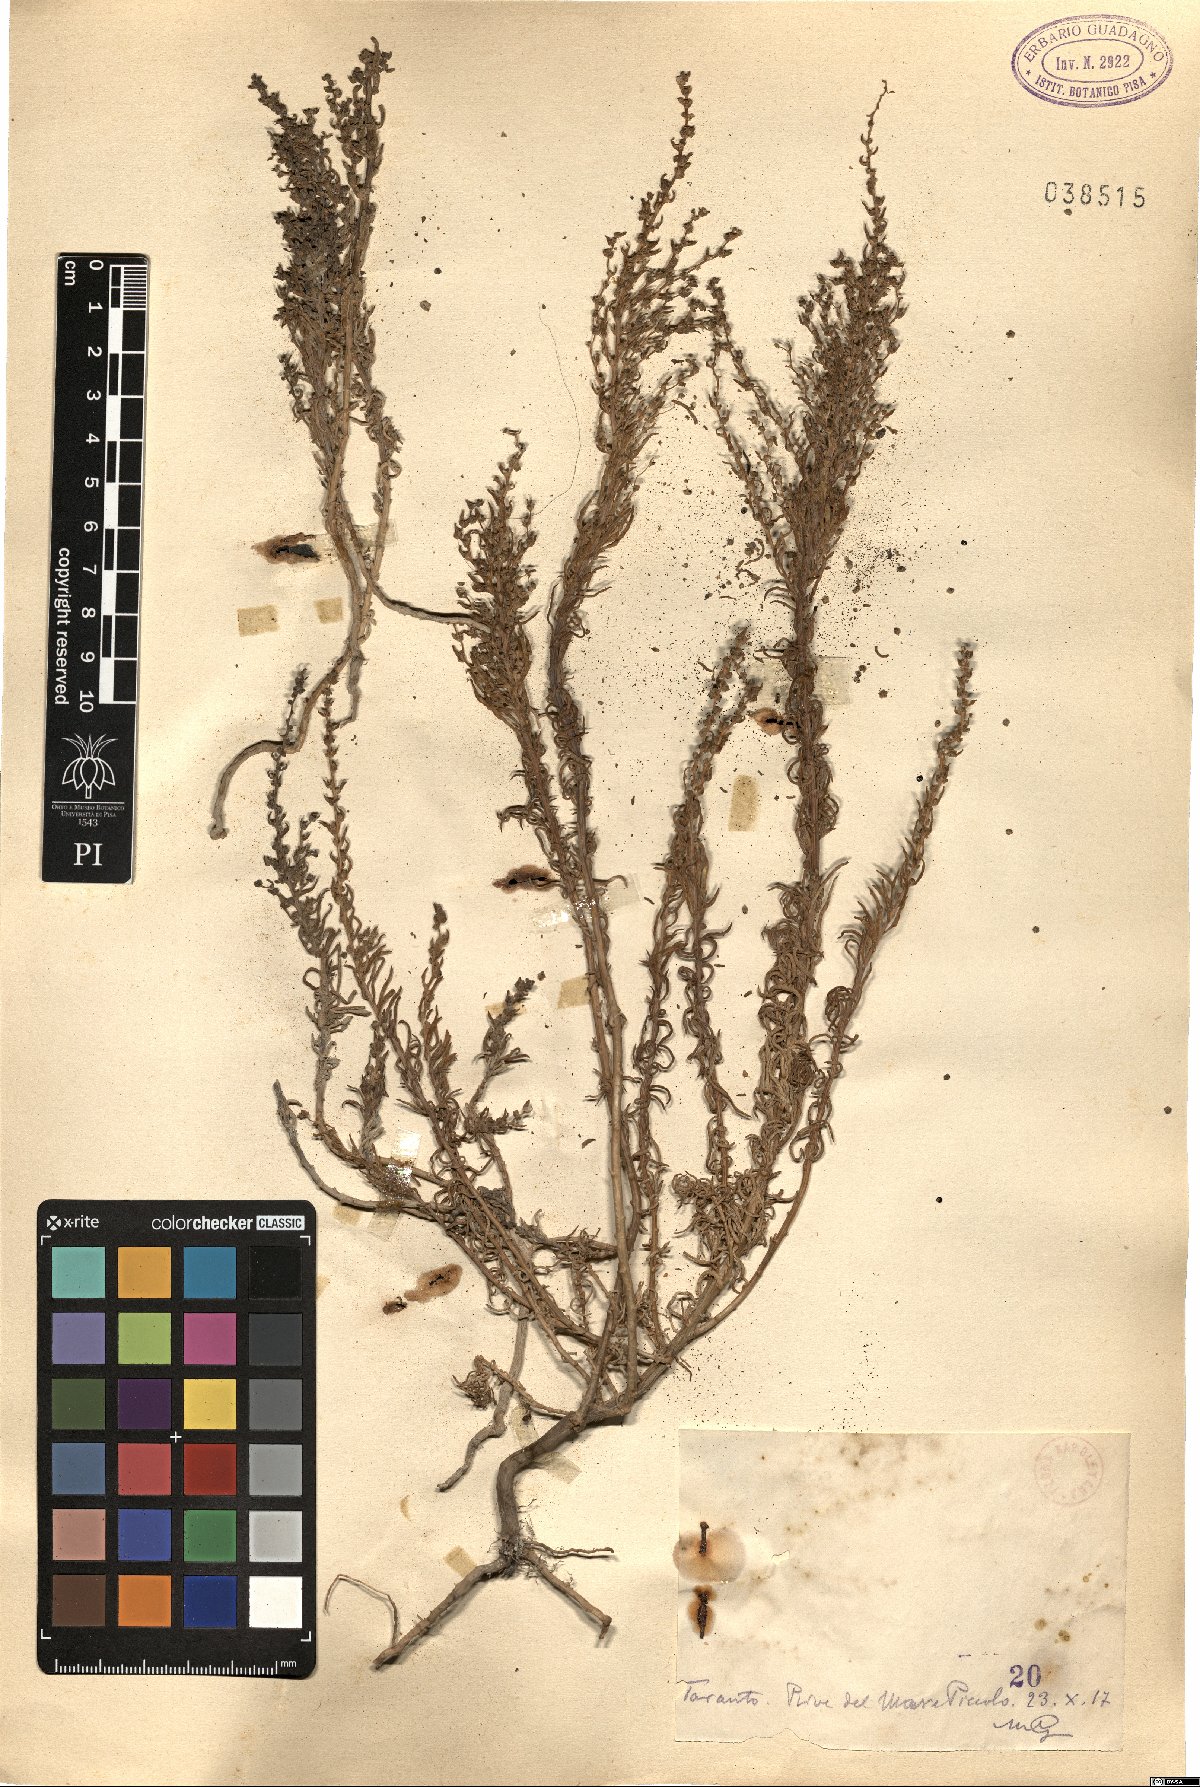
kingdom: Plantae
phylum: Tracheophyta
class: Magnoliopsida
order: Caryophyllales
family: Amaranthaceae
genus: Suaeda
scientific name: Suaeda
